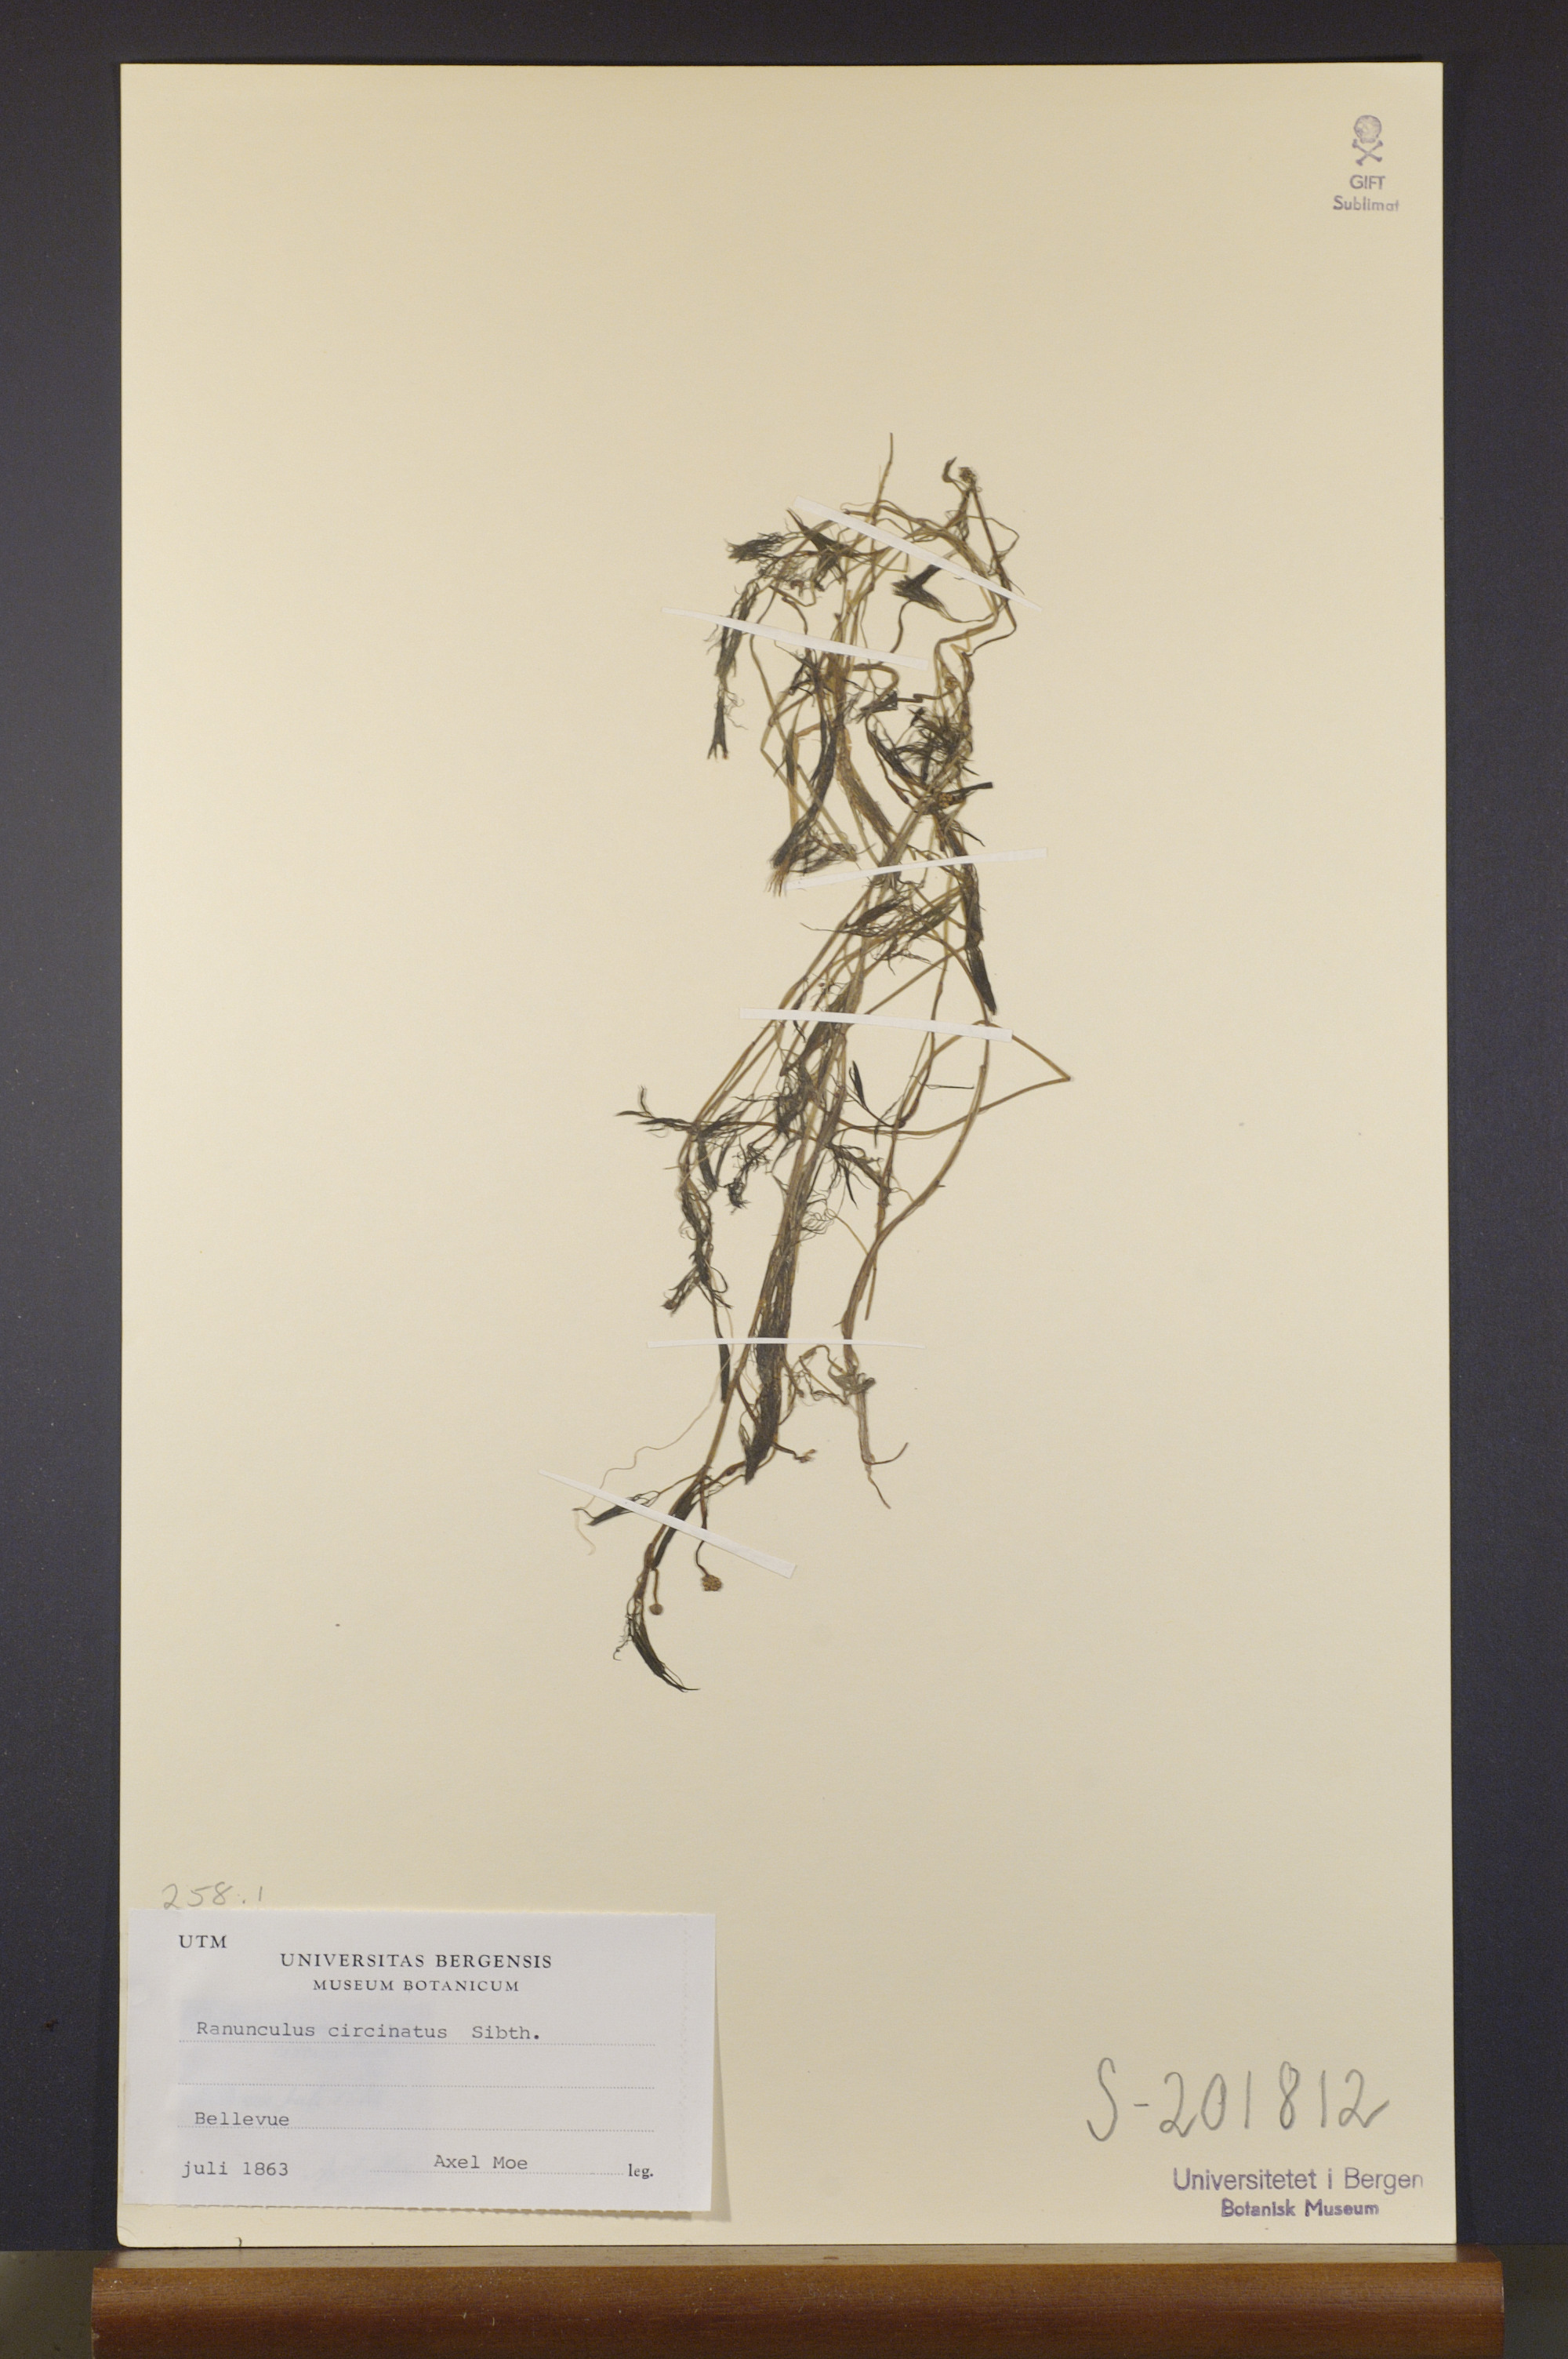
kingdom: Plantae
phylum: Tracheophyta
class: Magnoliopsida
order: Ranunculales
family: Ranunculaceae
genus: Ranunculus
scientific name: Ranunculus circinatus
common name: Fan-leaved water-crowfoot
